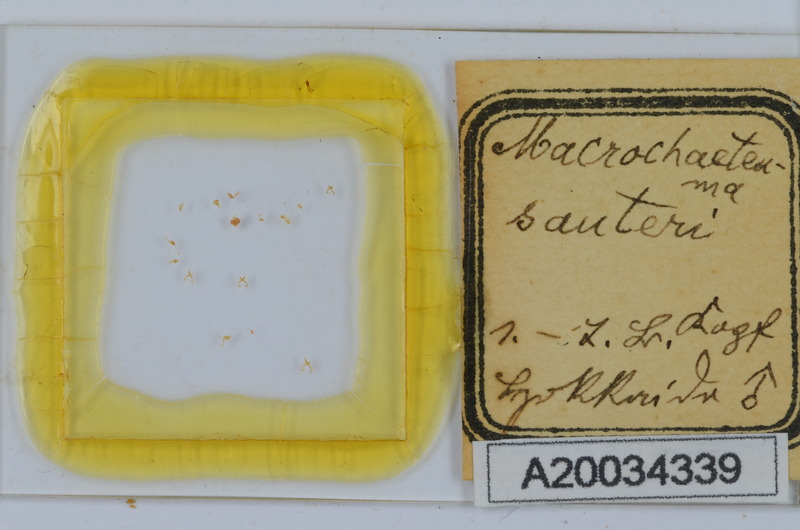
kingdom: Animalia
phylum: Arthropoda
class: Diplopoda
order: Chordeumatida
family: Macrochaeteumatidae
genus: Macrochaeteuma
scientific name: Macrochaeteuma sauteri
